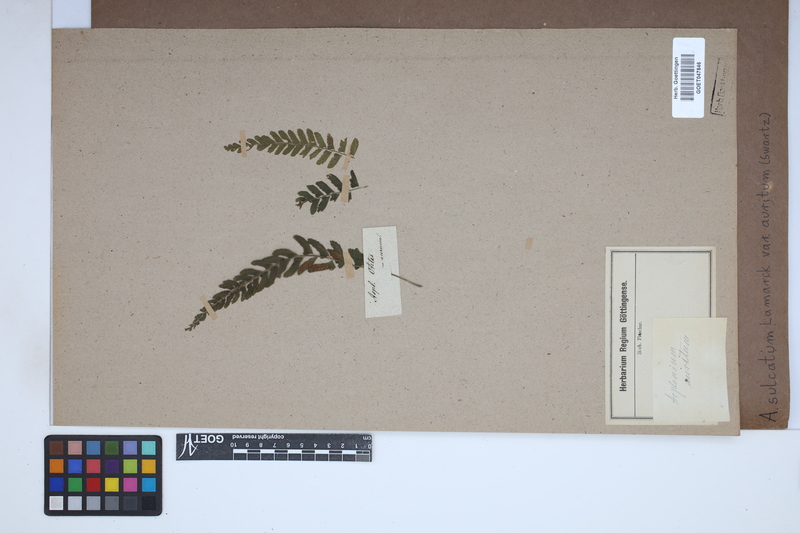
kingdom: Plantae
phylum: Tracheophyta
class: Polypodiopsida
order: Polypodiales
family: Aspleniaceae
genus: Asplenium
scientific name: Asplenium auritum
